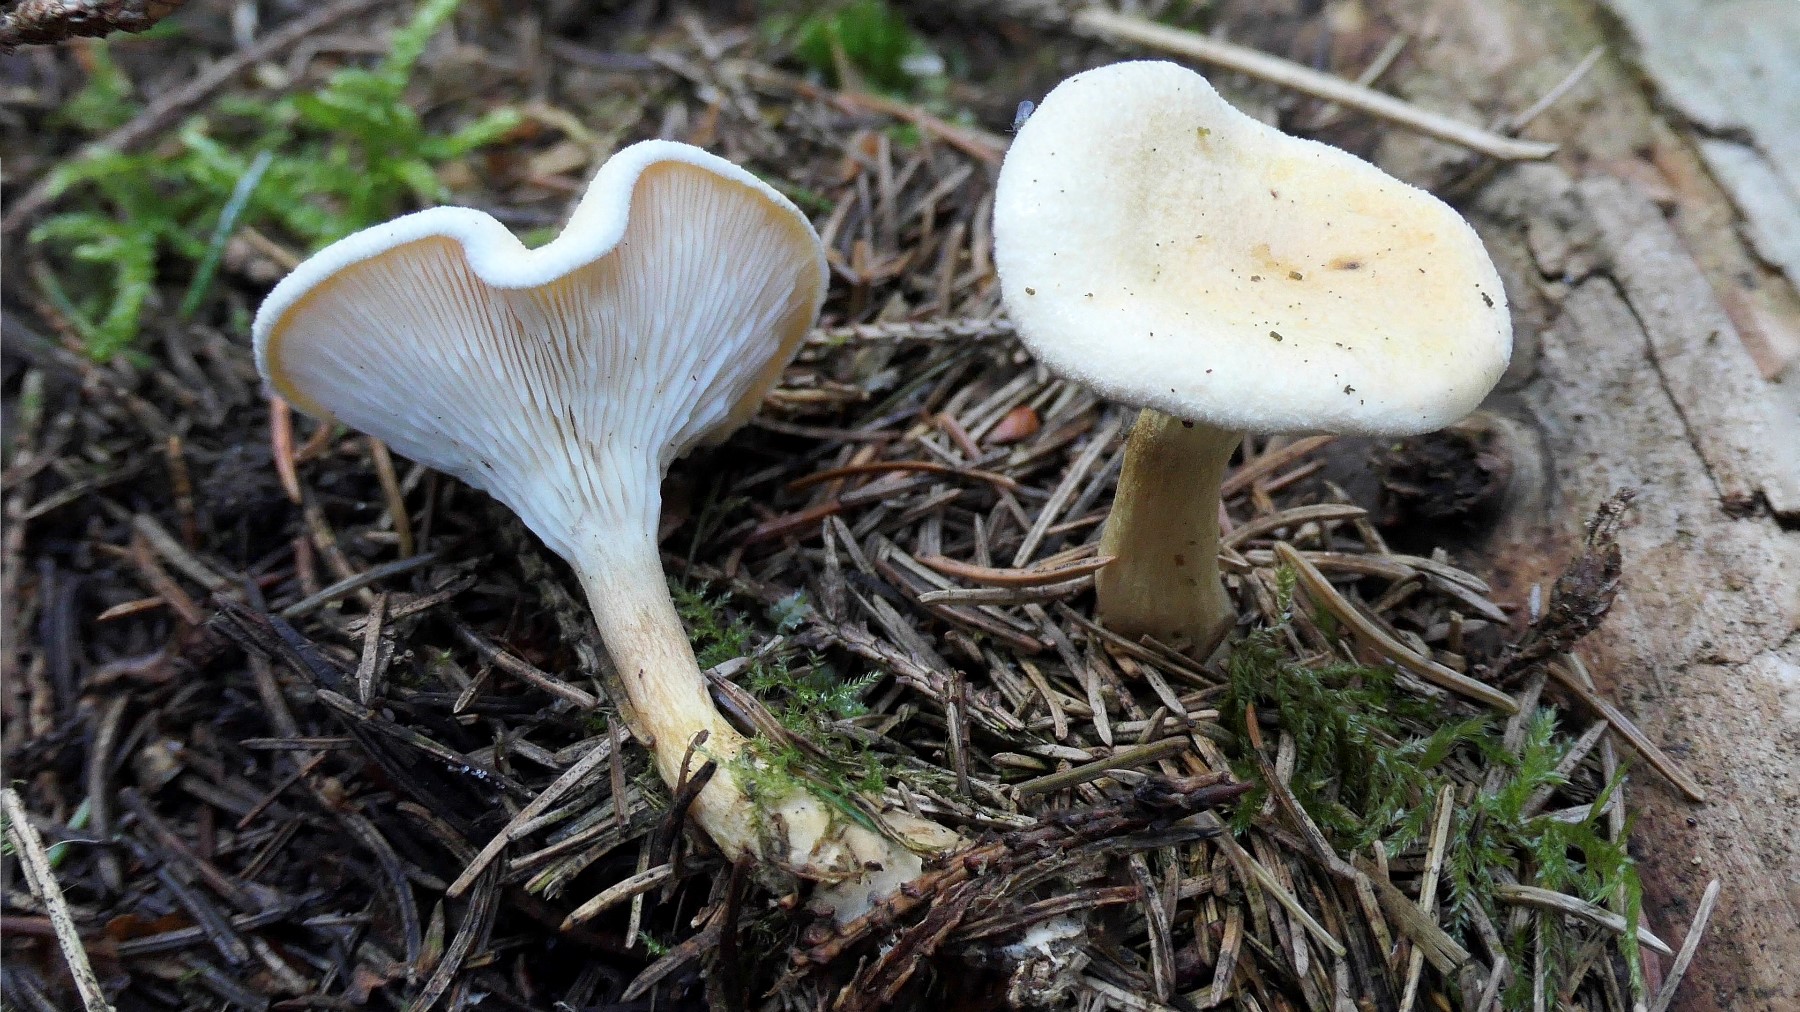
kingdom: Fungi
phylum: Basidiomycota
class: Agaricomycetes
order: Boletales
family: Hygrophoropsidaceae
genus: Hygrophoropsis
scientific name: Hygrophoropsis pallida
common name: bleg orangekantarel
